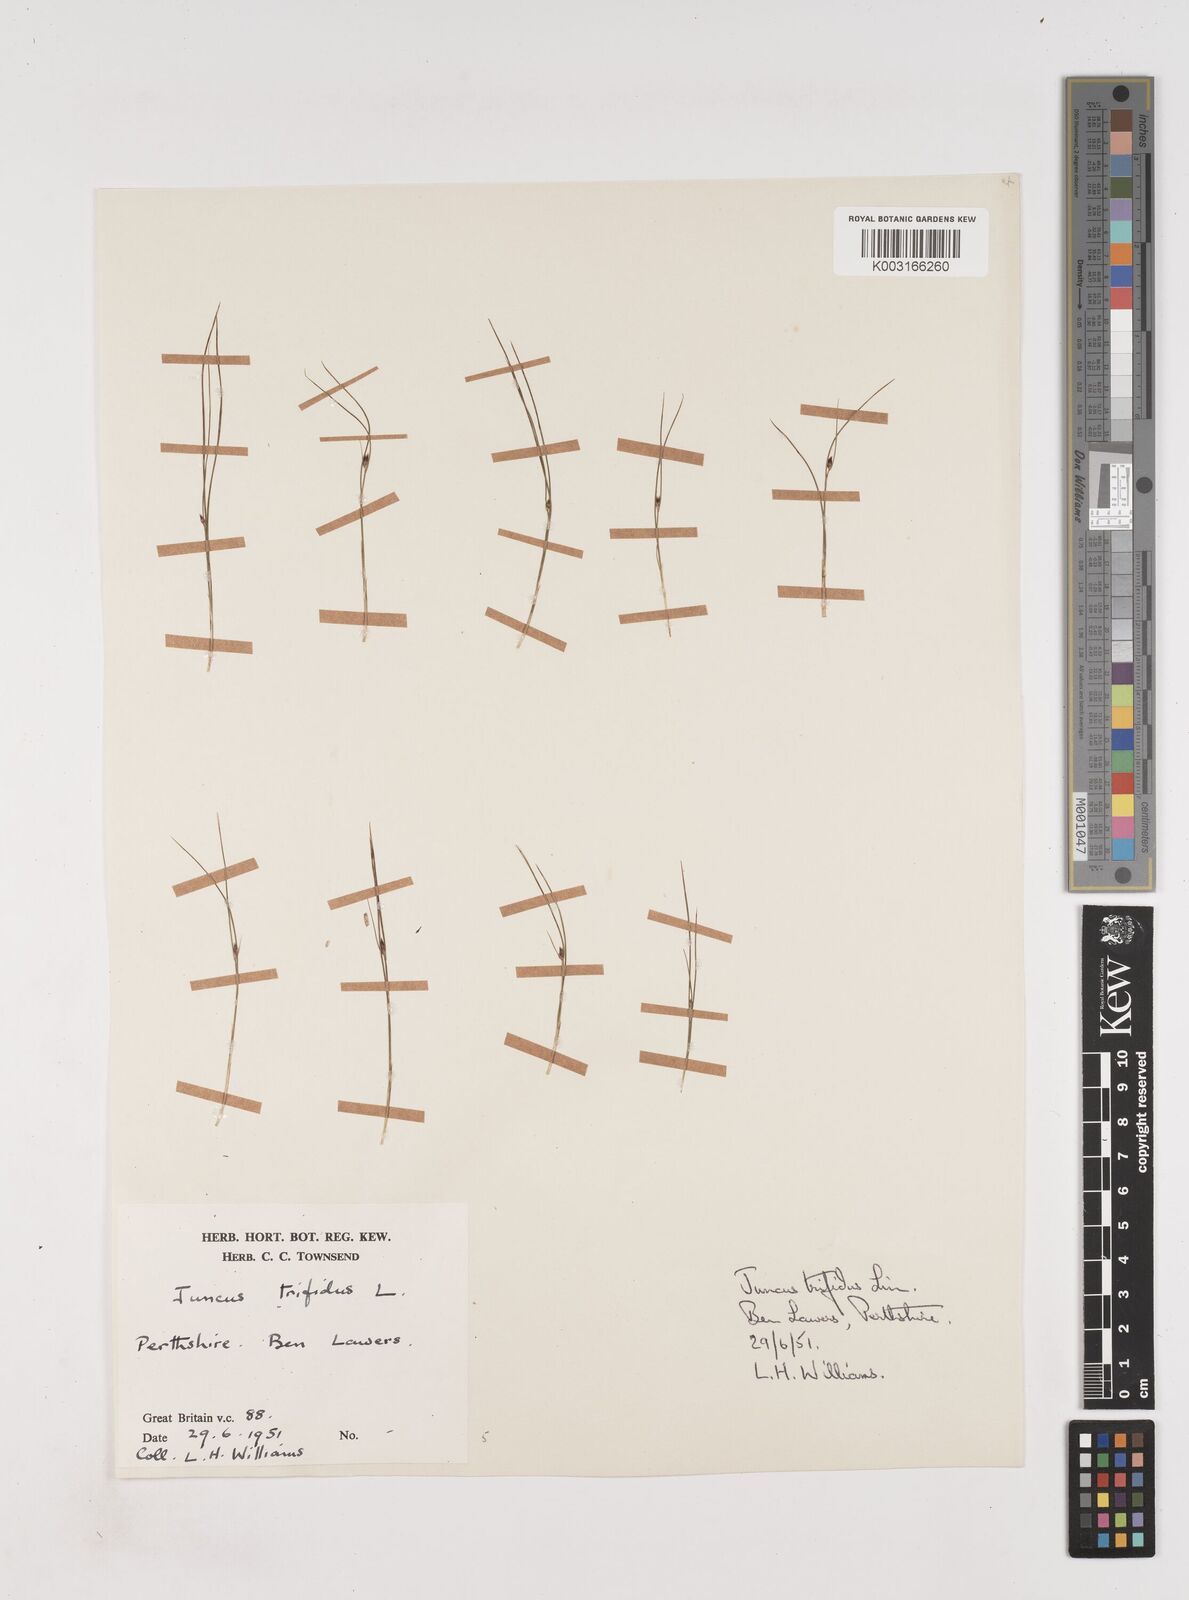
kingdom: Plantae
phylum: Tracheophyta
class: Liliopsida
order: Poales
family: Juncaceae
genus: Oreojuncus
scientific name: Oreojuncus trifidus
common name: Highland rush
